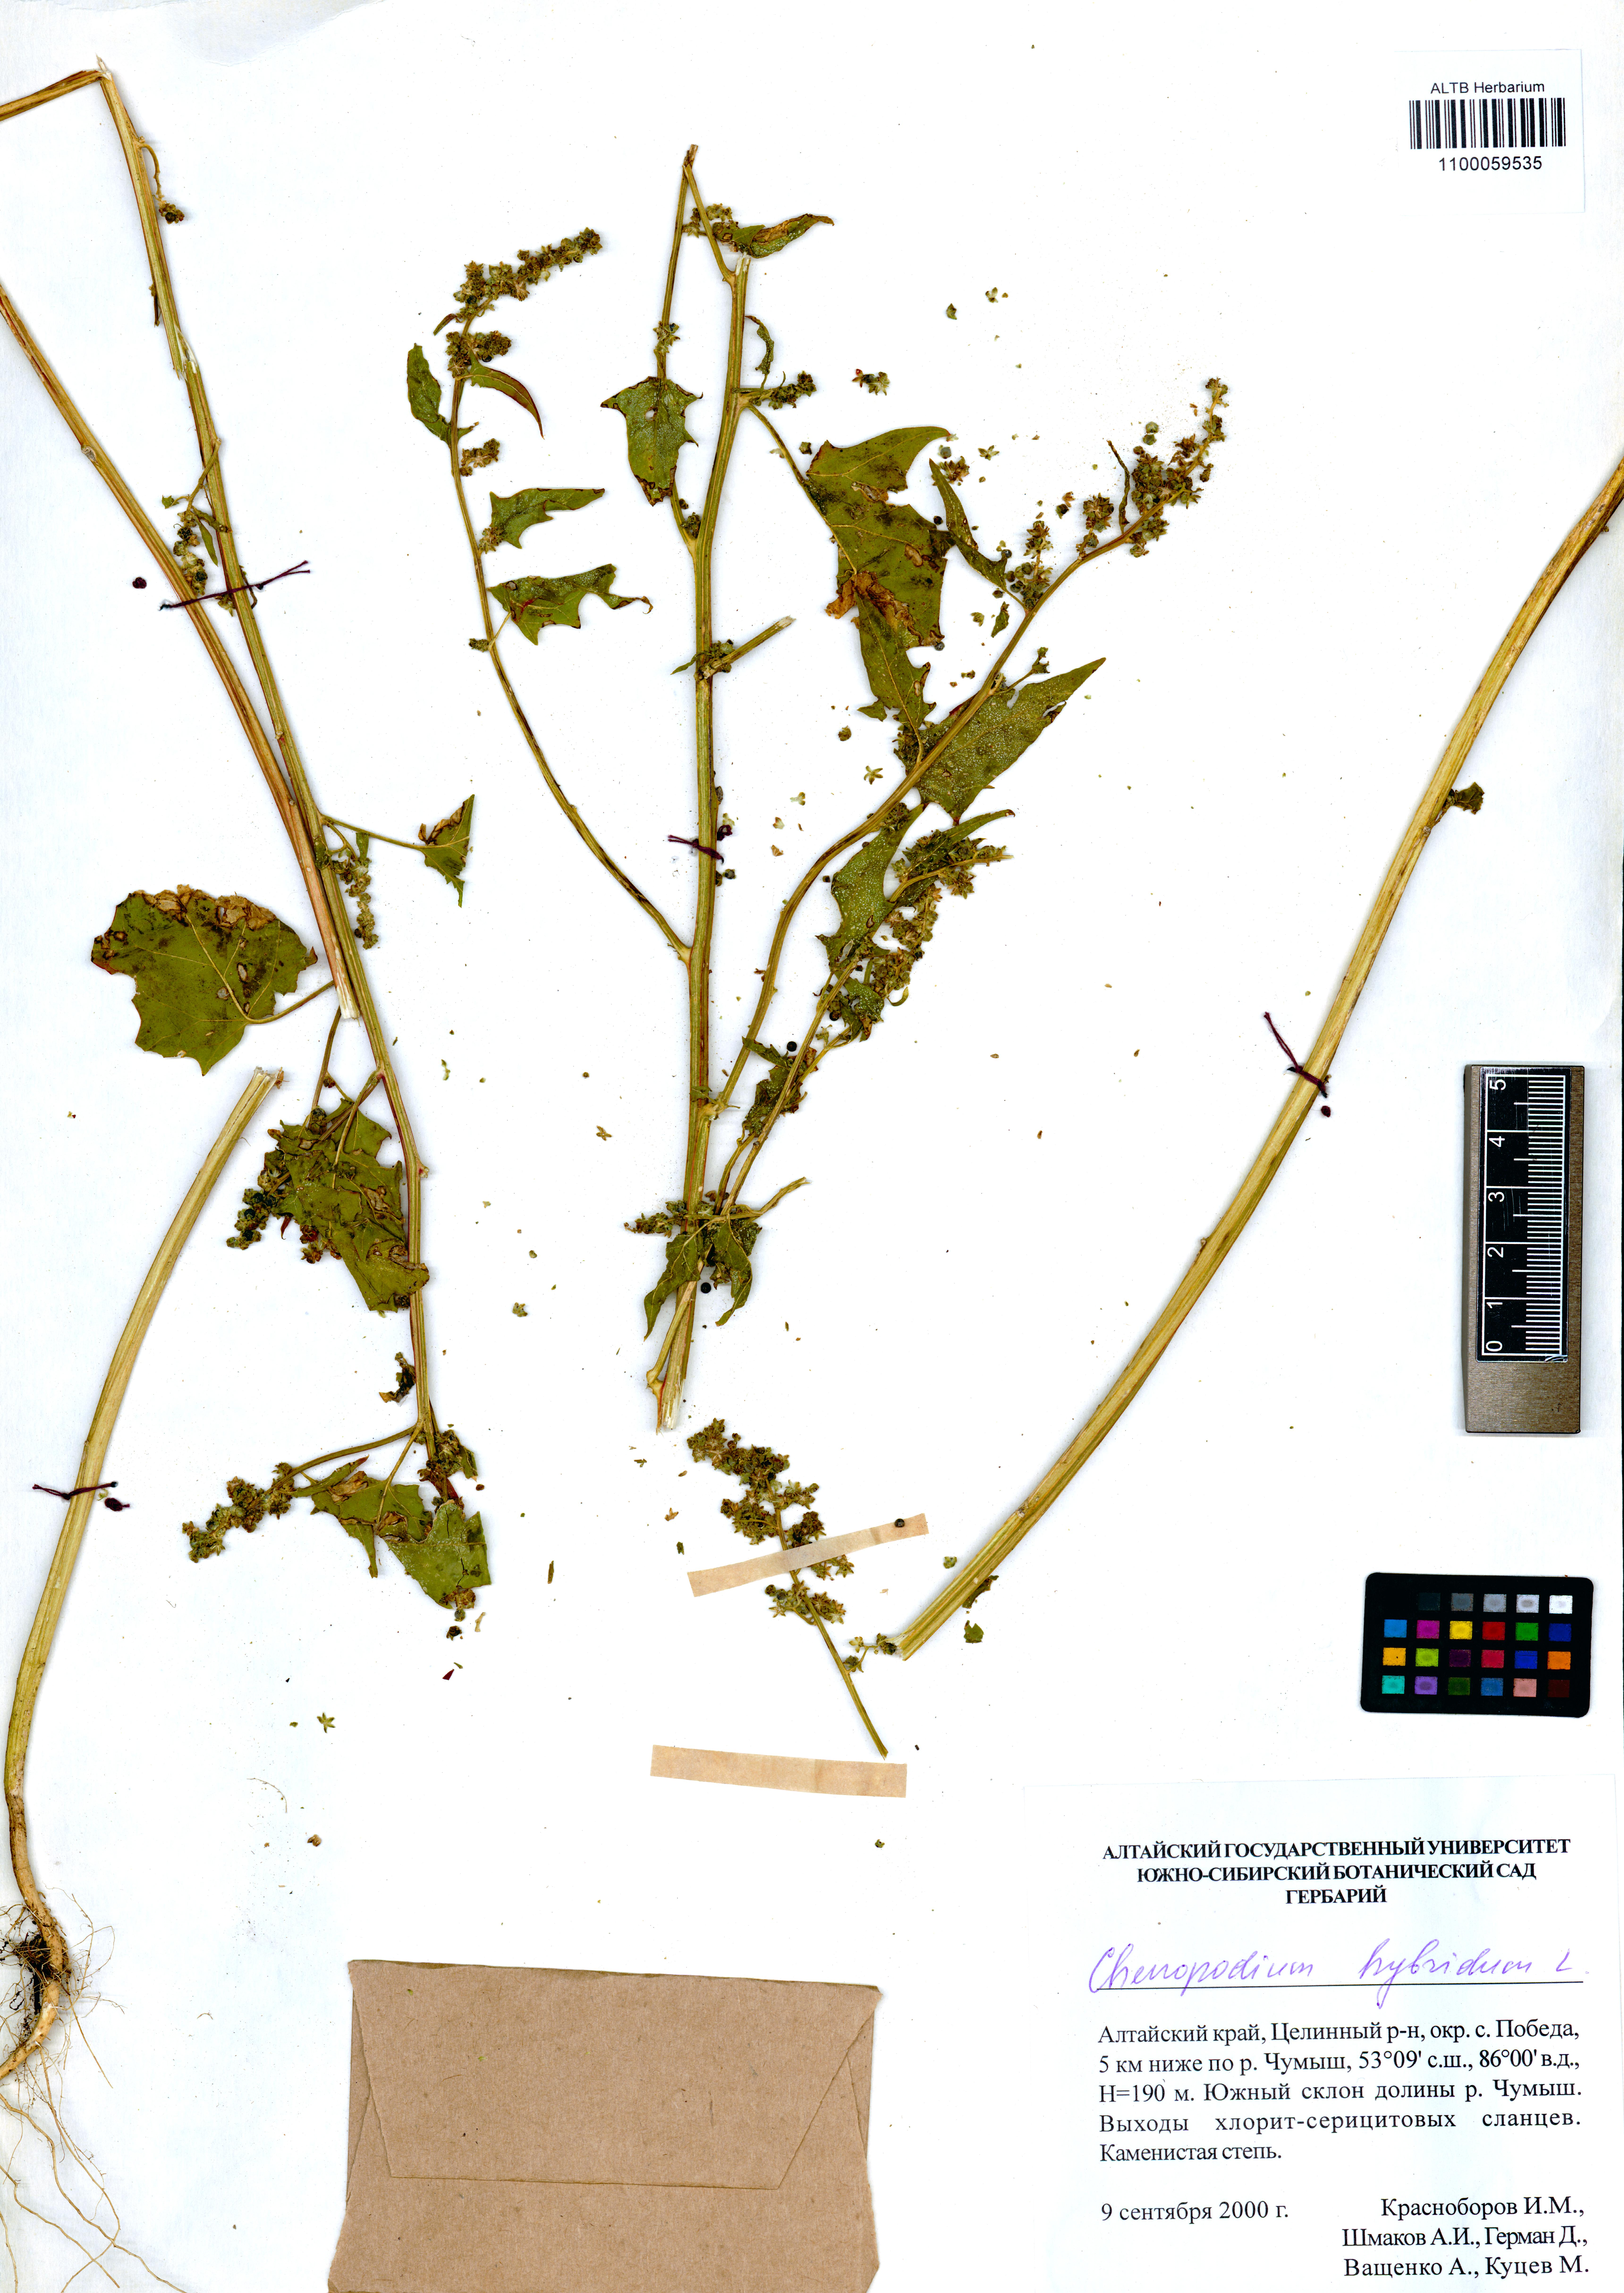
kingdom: Plantae
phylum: Tracheophyta
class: Magnoliopsida
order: Caryophyllales
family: Amaranthaceae
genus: Chenopodiastrum
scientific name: Chenopodiastrum hybridum
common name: Mapleleaf goosefoot
